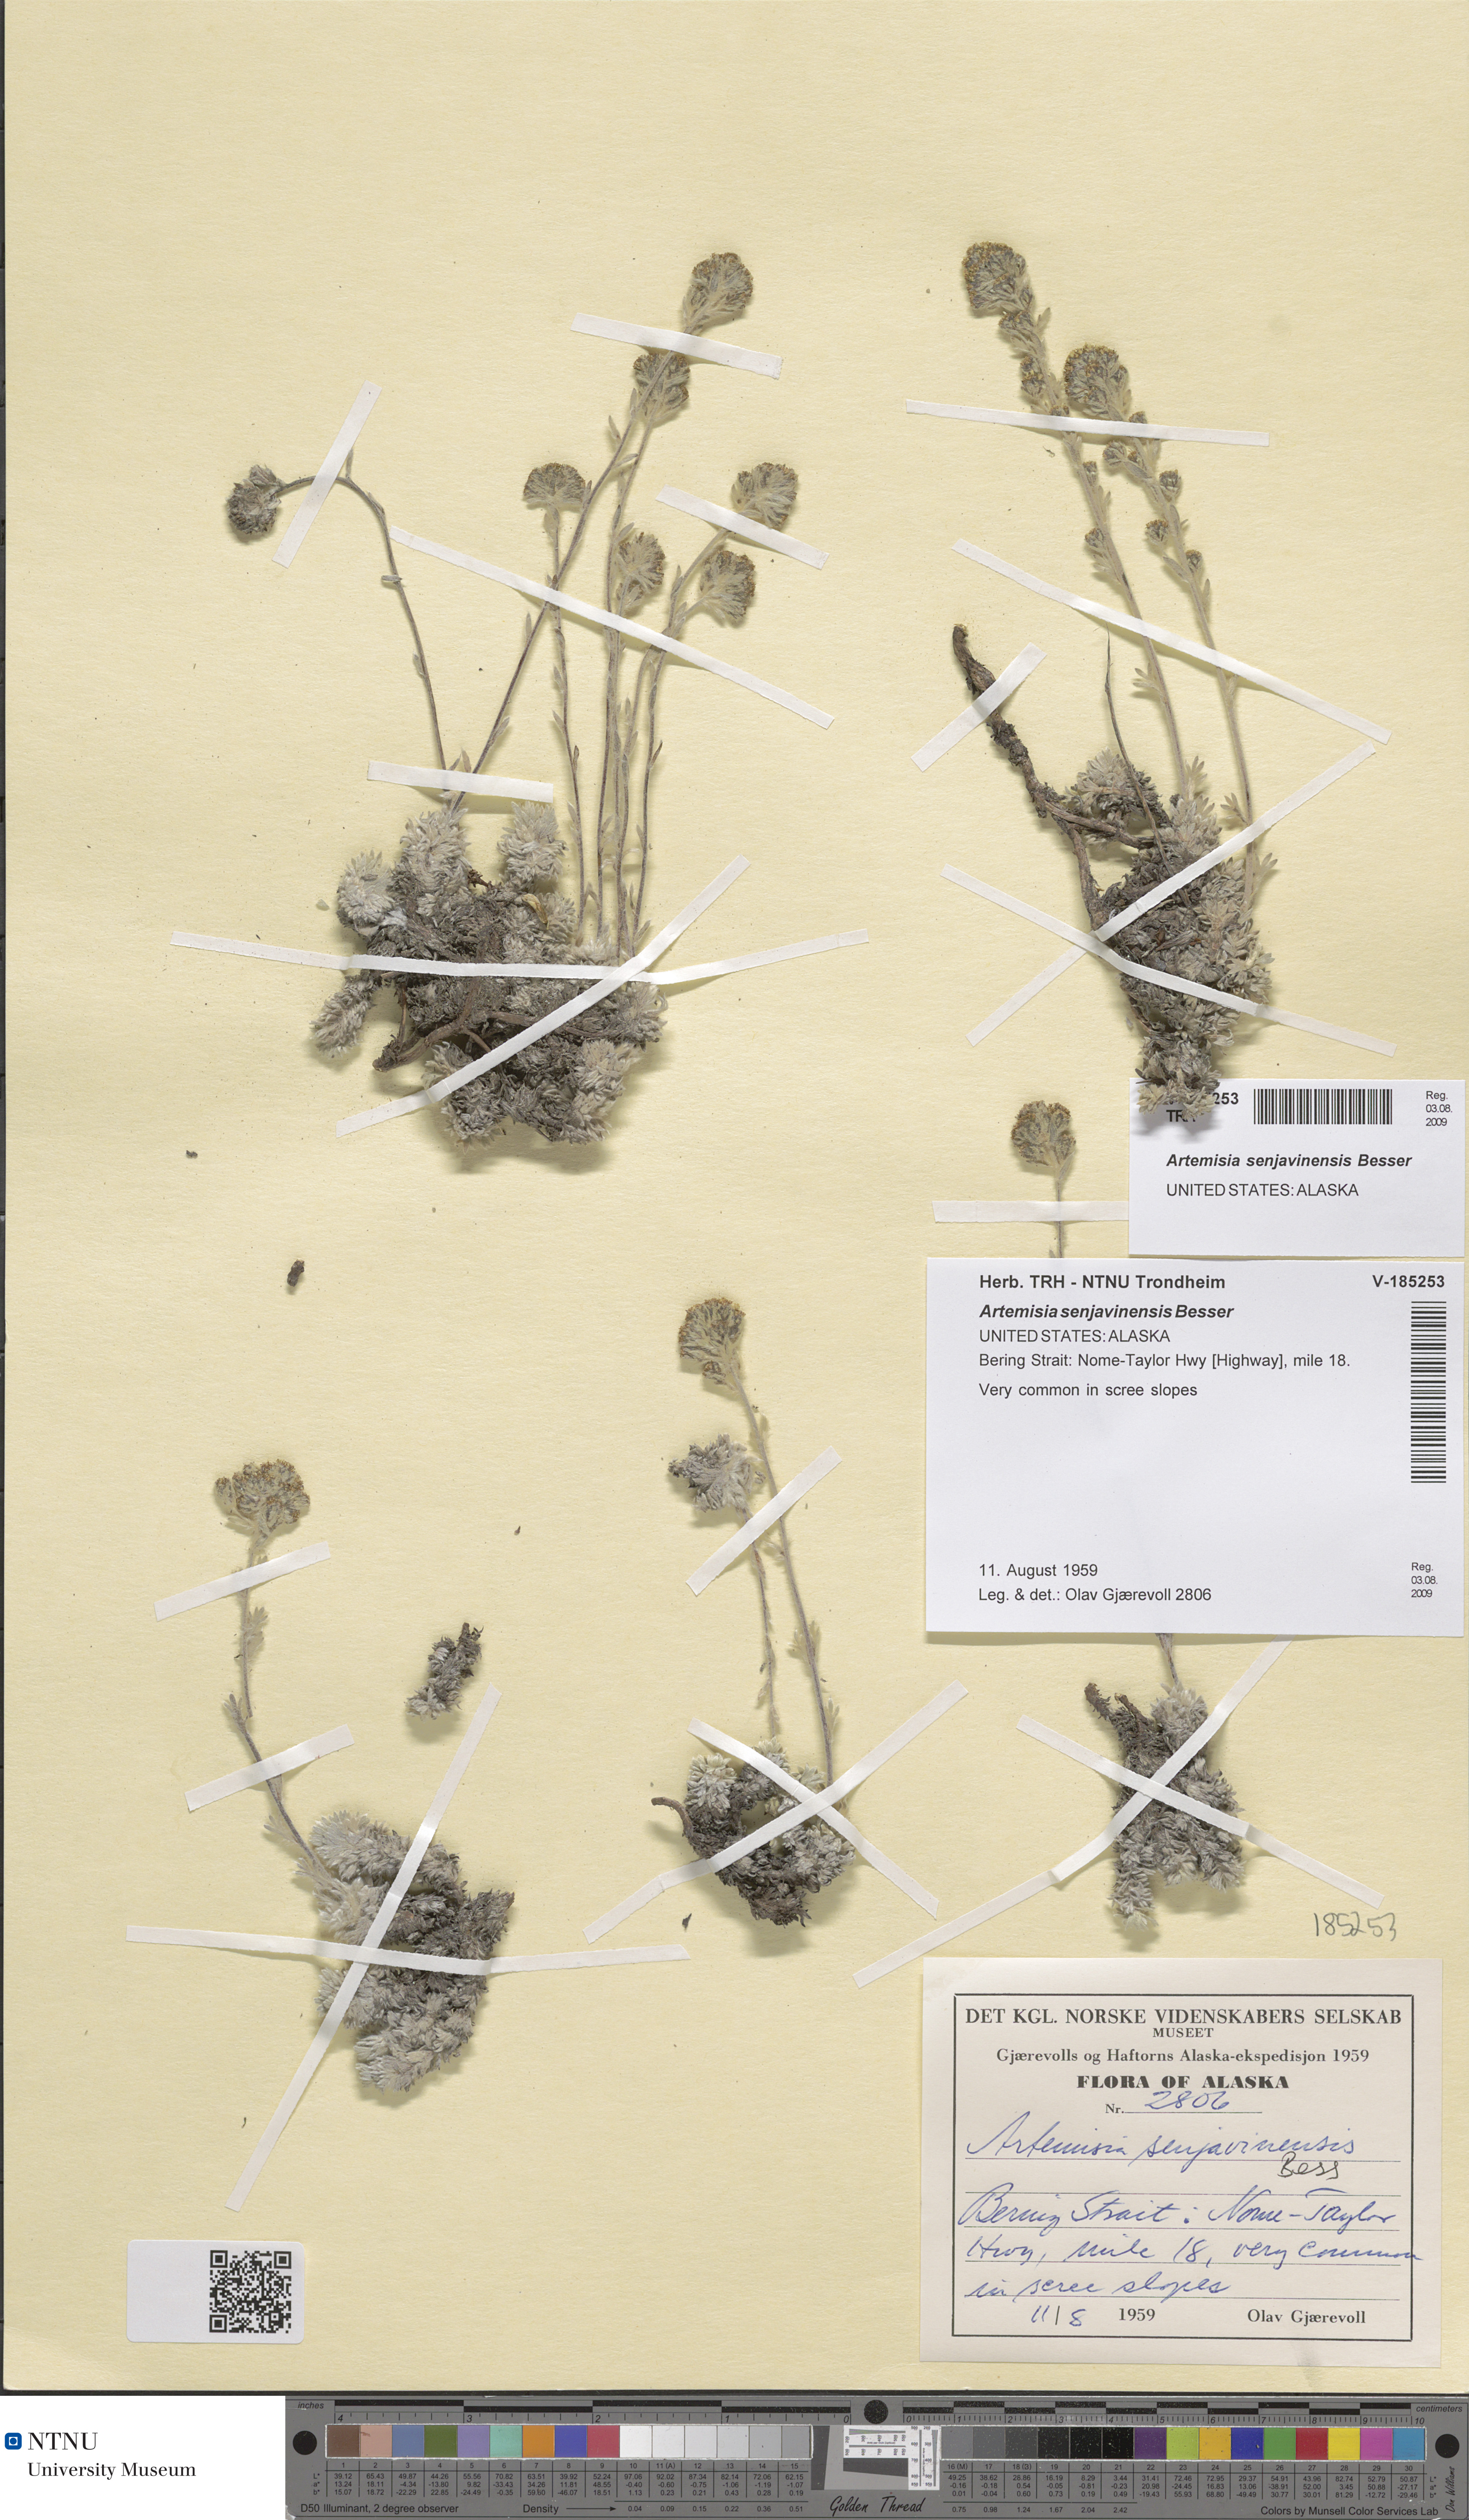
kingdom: Plantae
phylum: Tracheophyta
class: Magnoliopsida
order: Asterales
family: Asteraceae
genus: Artemisia
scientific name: Artemisia senjavinensis
